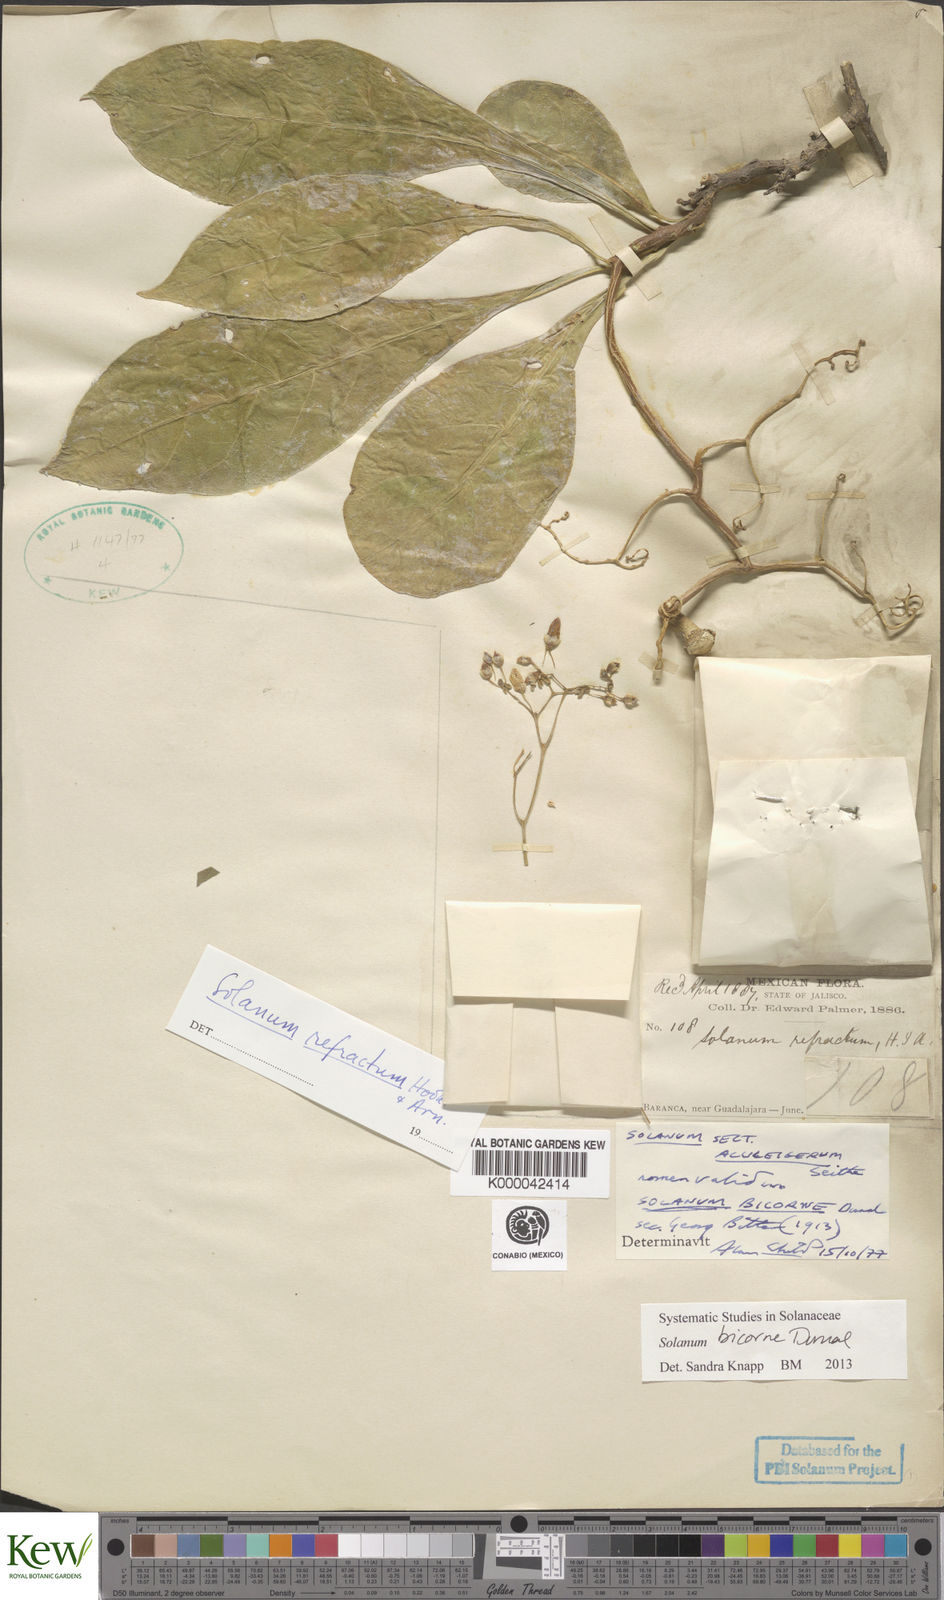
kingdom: Plantae
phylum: Tracheophyta
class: Magnoliopsida
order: Solanales
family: Solanaceae
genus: Solanum
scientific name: Solanum bicorne
